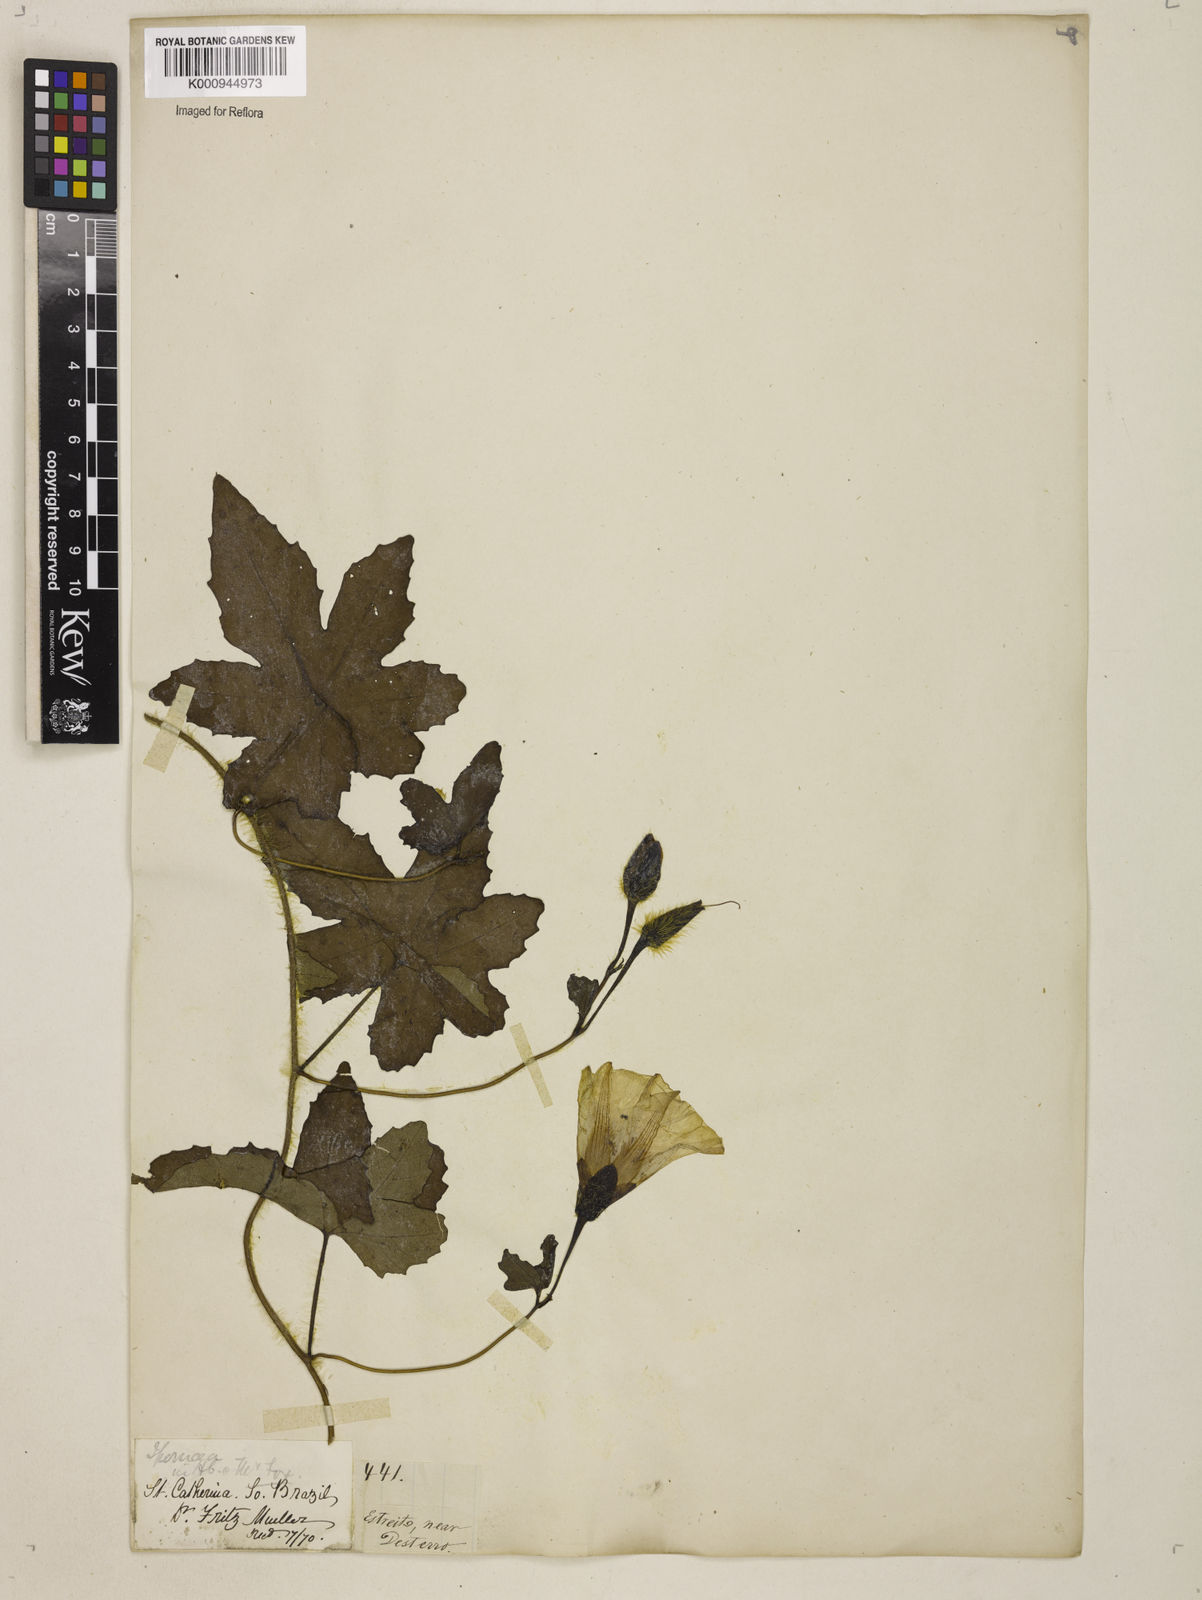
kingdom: Plantae
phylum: Tracheophyta
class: Magnoliopsida
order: Solanales
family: Convolvulaceae
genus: Distimake
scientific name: Distimake dissectus
